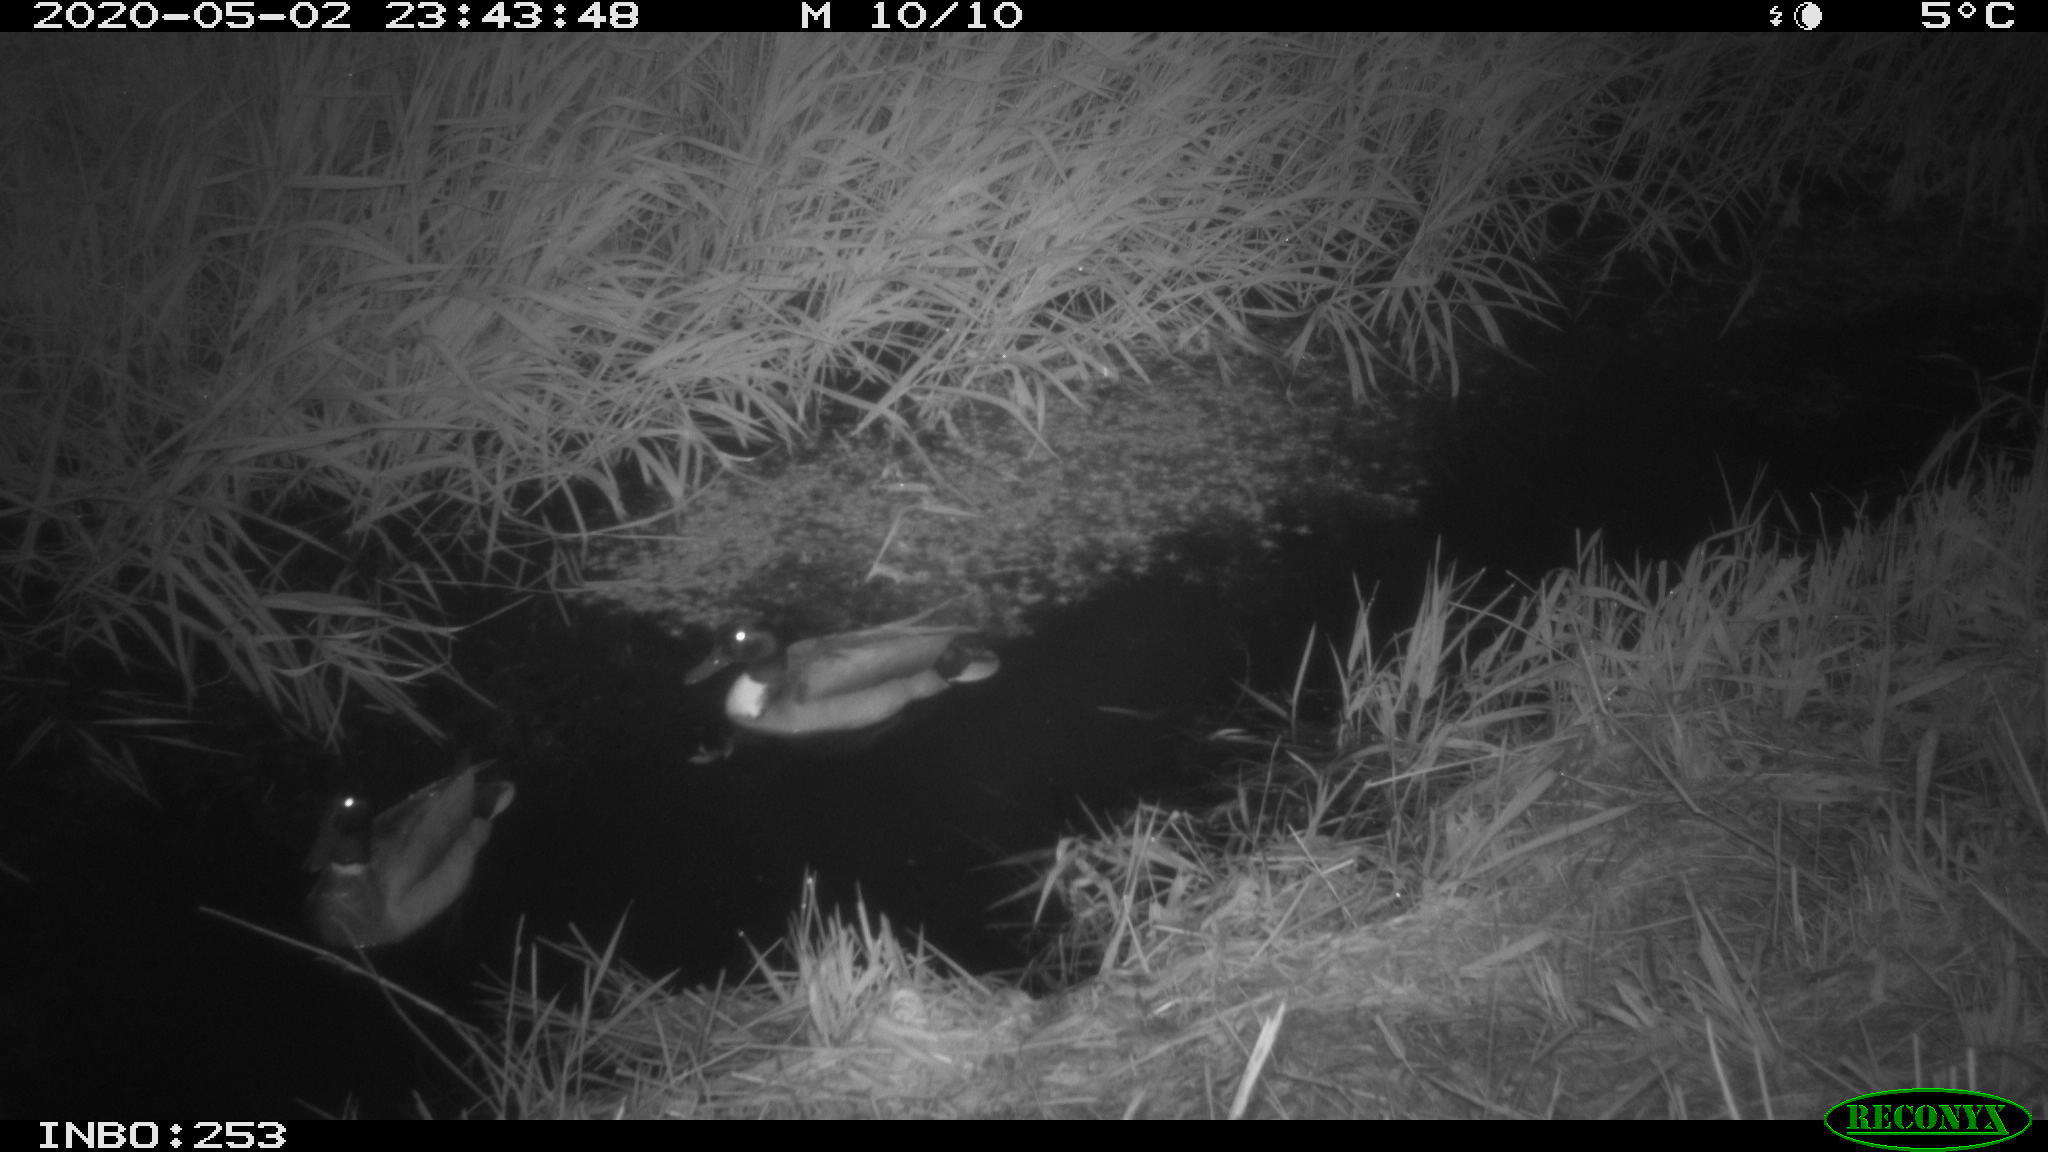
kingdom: Animalia
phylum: Chordata
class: Aves
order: Anseriformes
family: Anatidae
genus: Anas
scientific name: Anas platyrhynchos
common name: Mallard
